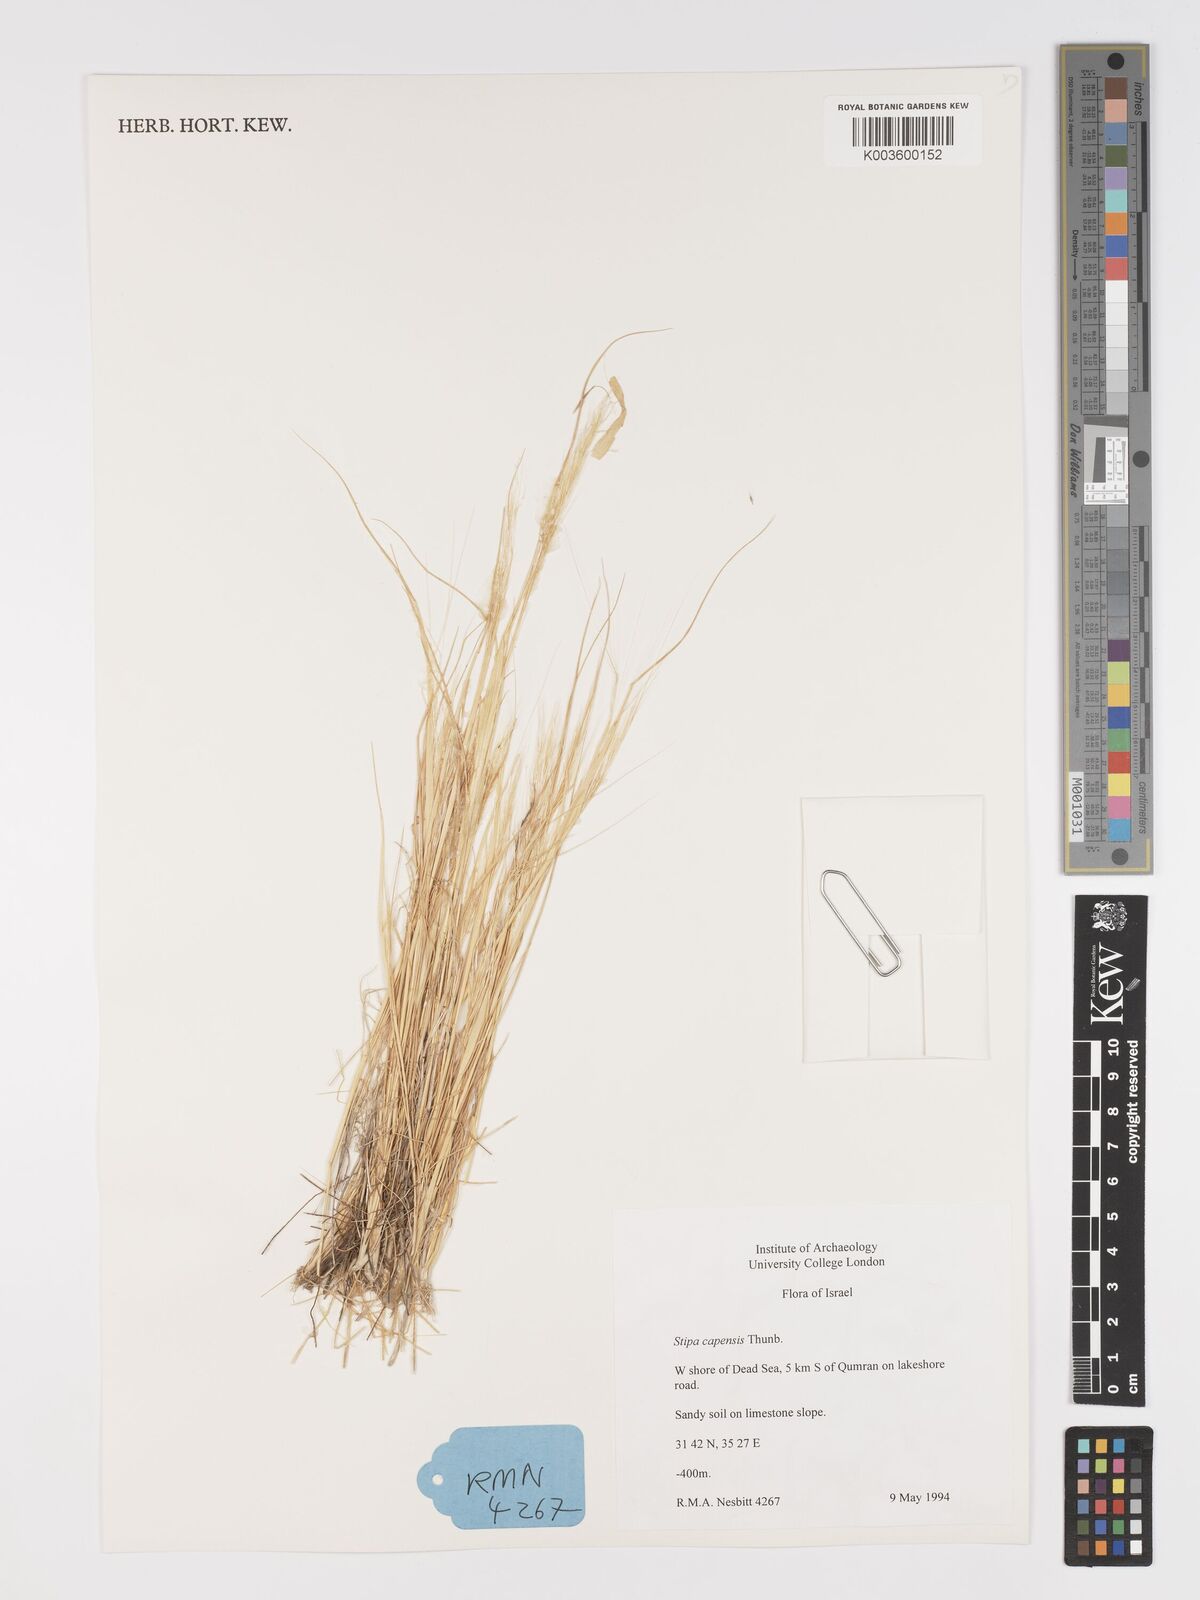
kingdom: Plantae
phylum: Tracheophyta
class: Liliopsida
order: Poales
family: Poaceae
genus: Stipellula
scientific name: Stipellula capensis
